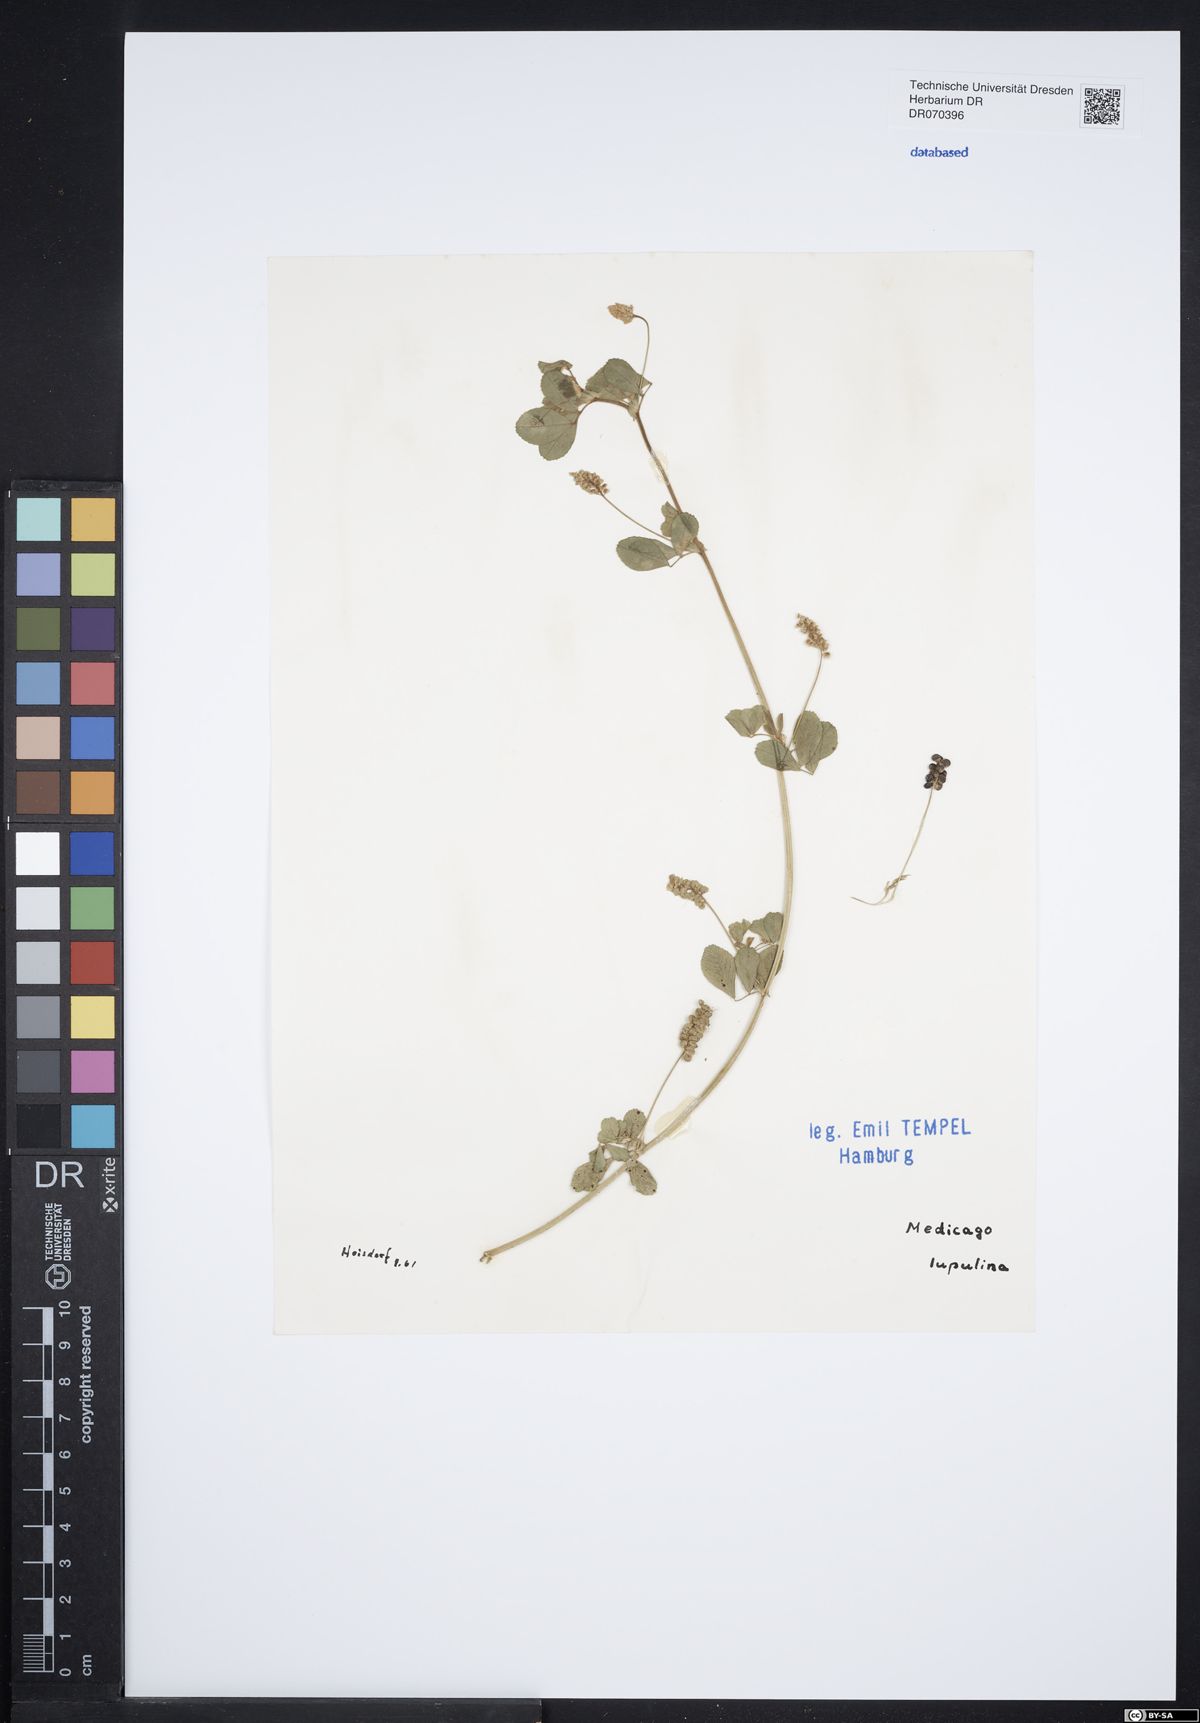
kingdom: Plantae
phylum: Tracheophyta
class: Magnoliopsida
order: Fabales
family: Fabaceae
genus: Medicago
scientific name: Medicago lupulina
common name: Black medick
